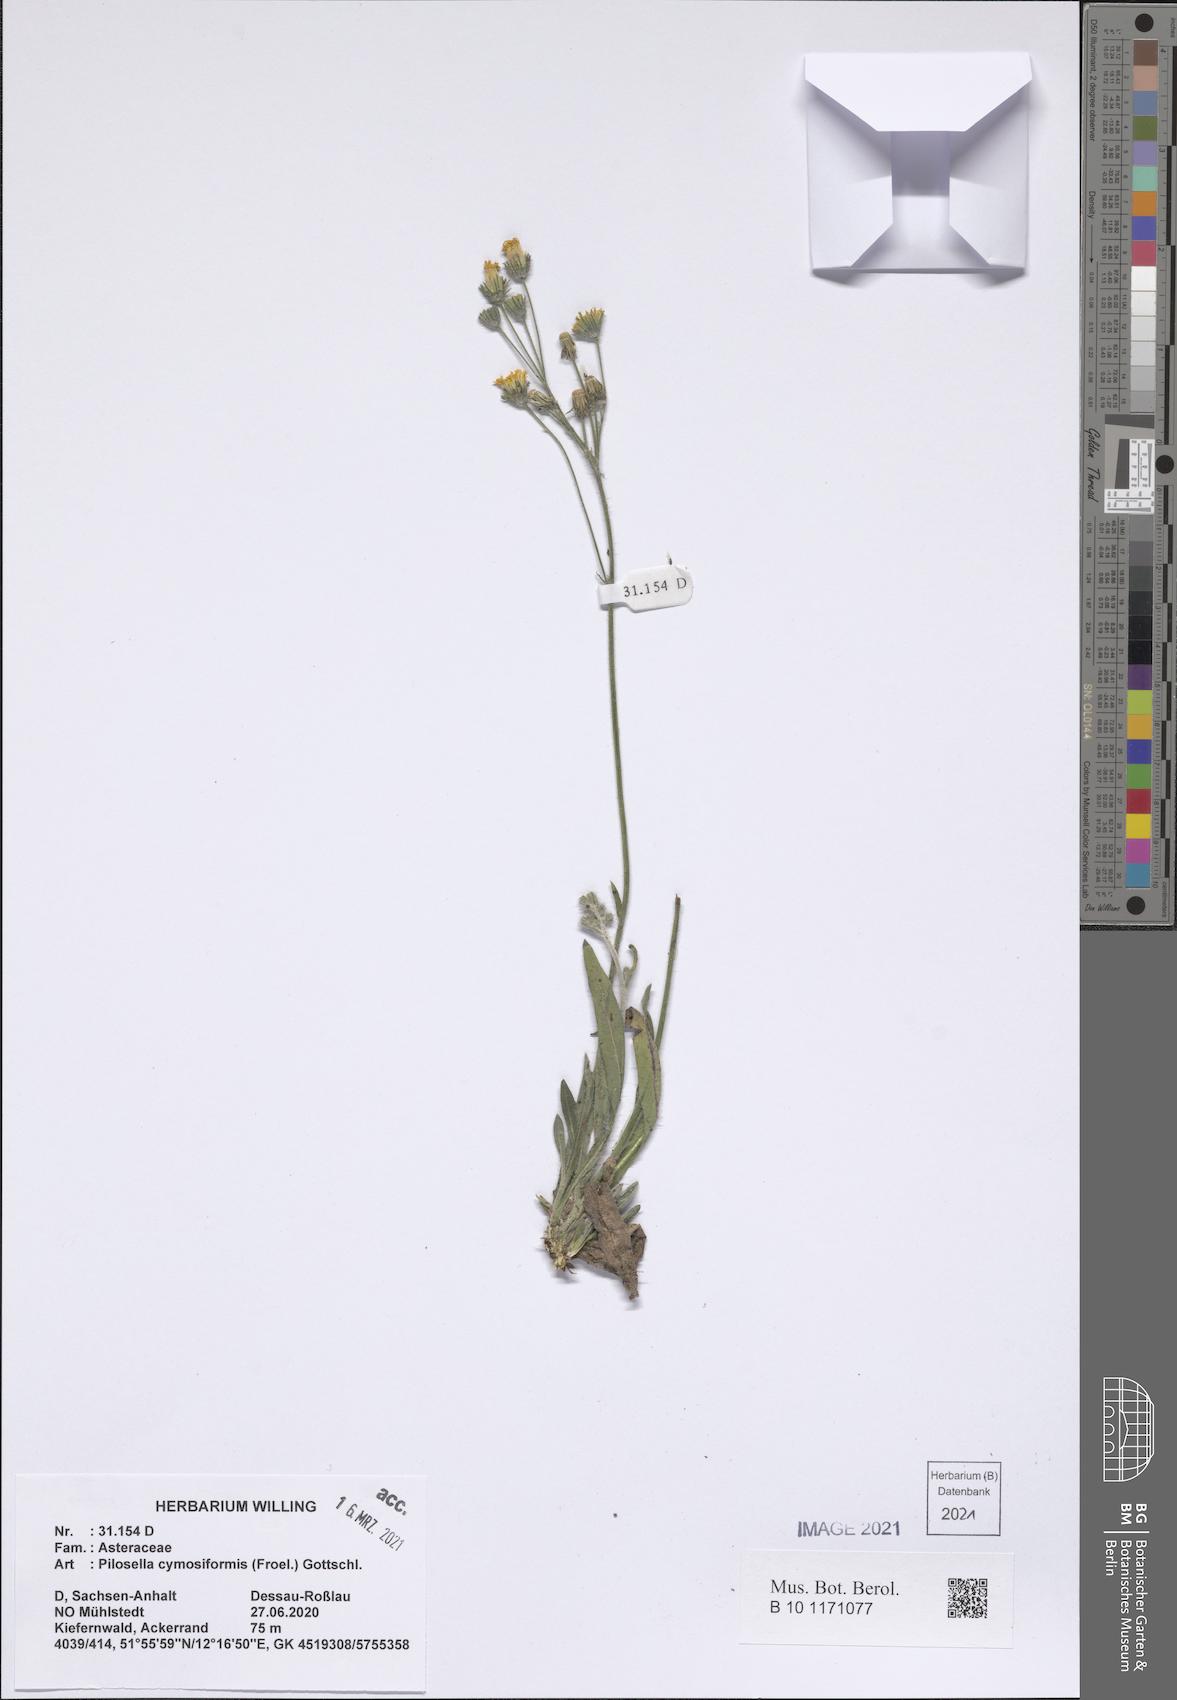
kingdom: Plantae
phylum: Tracheophyta
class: Magnoliopsida
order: Asterales
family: Asteraceae
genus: Pilosella
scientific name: Pilosella cymosiformis
